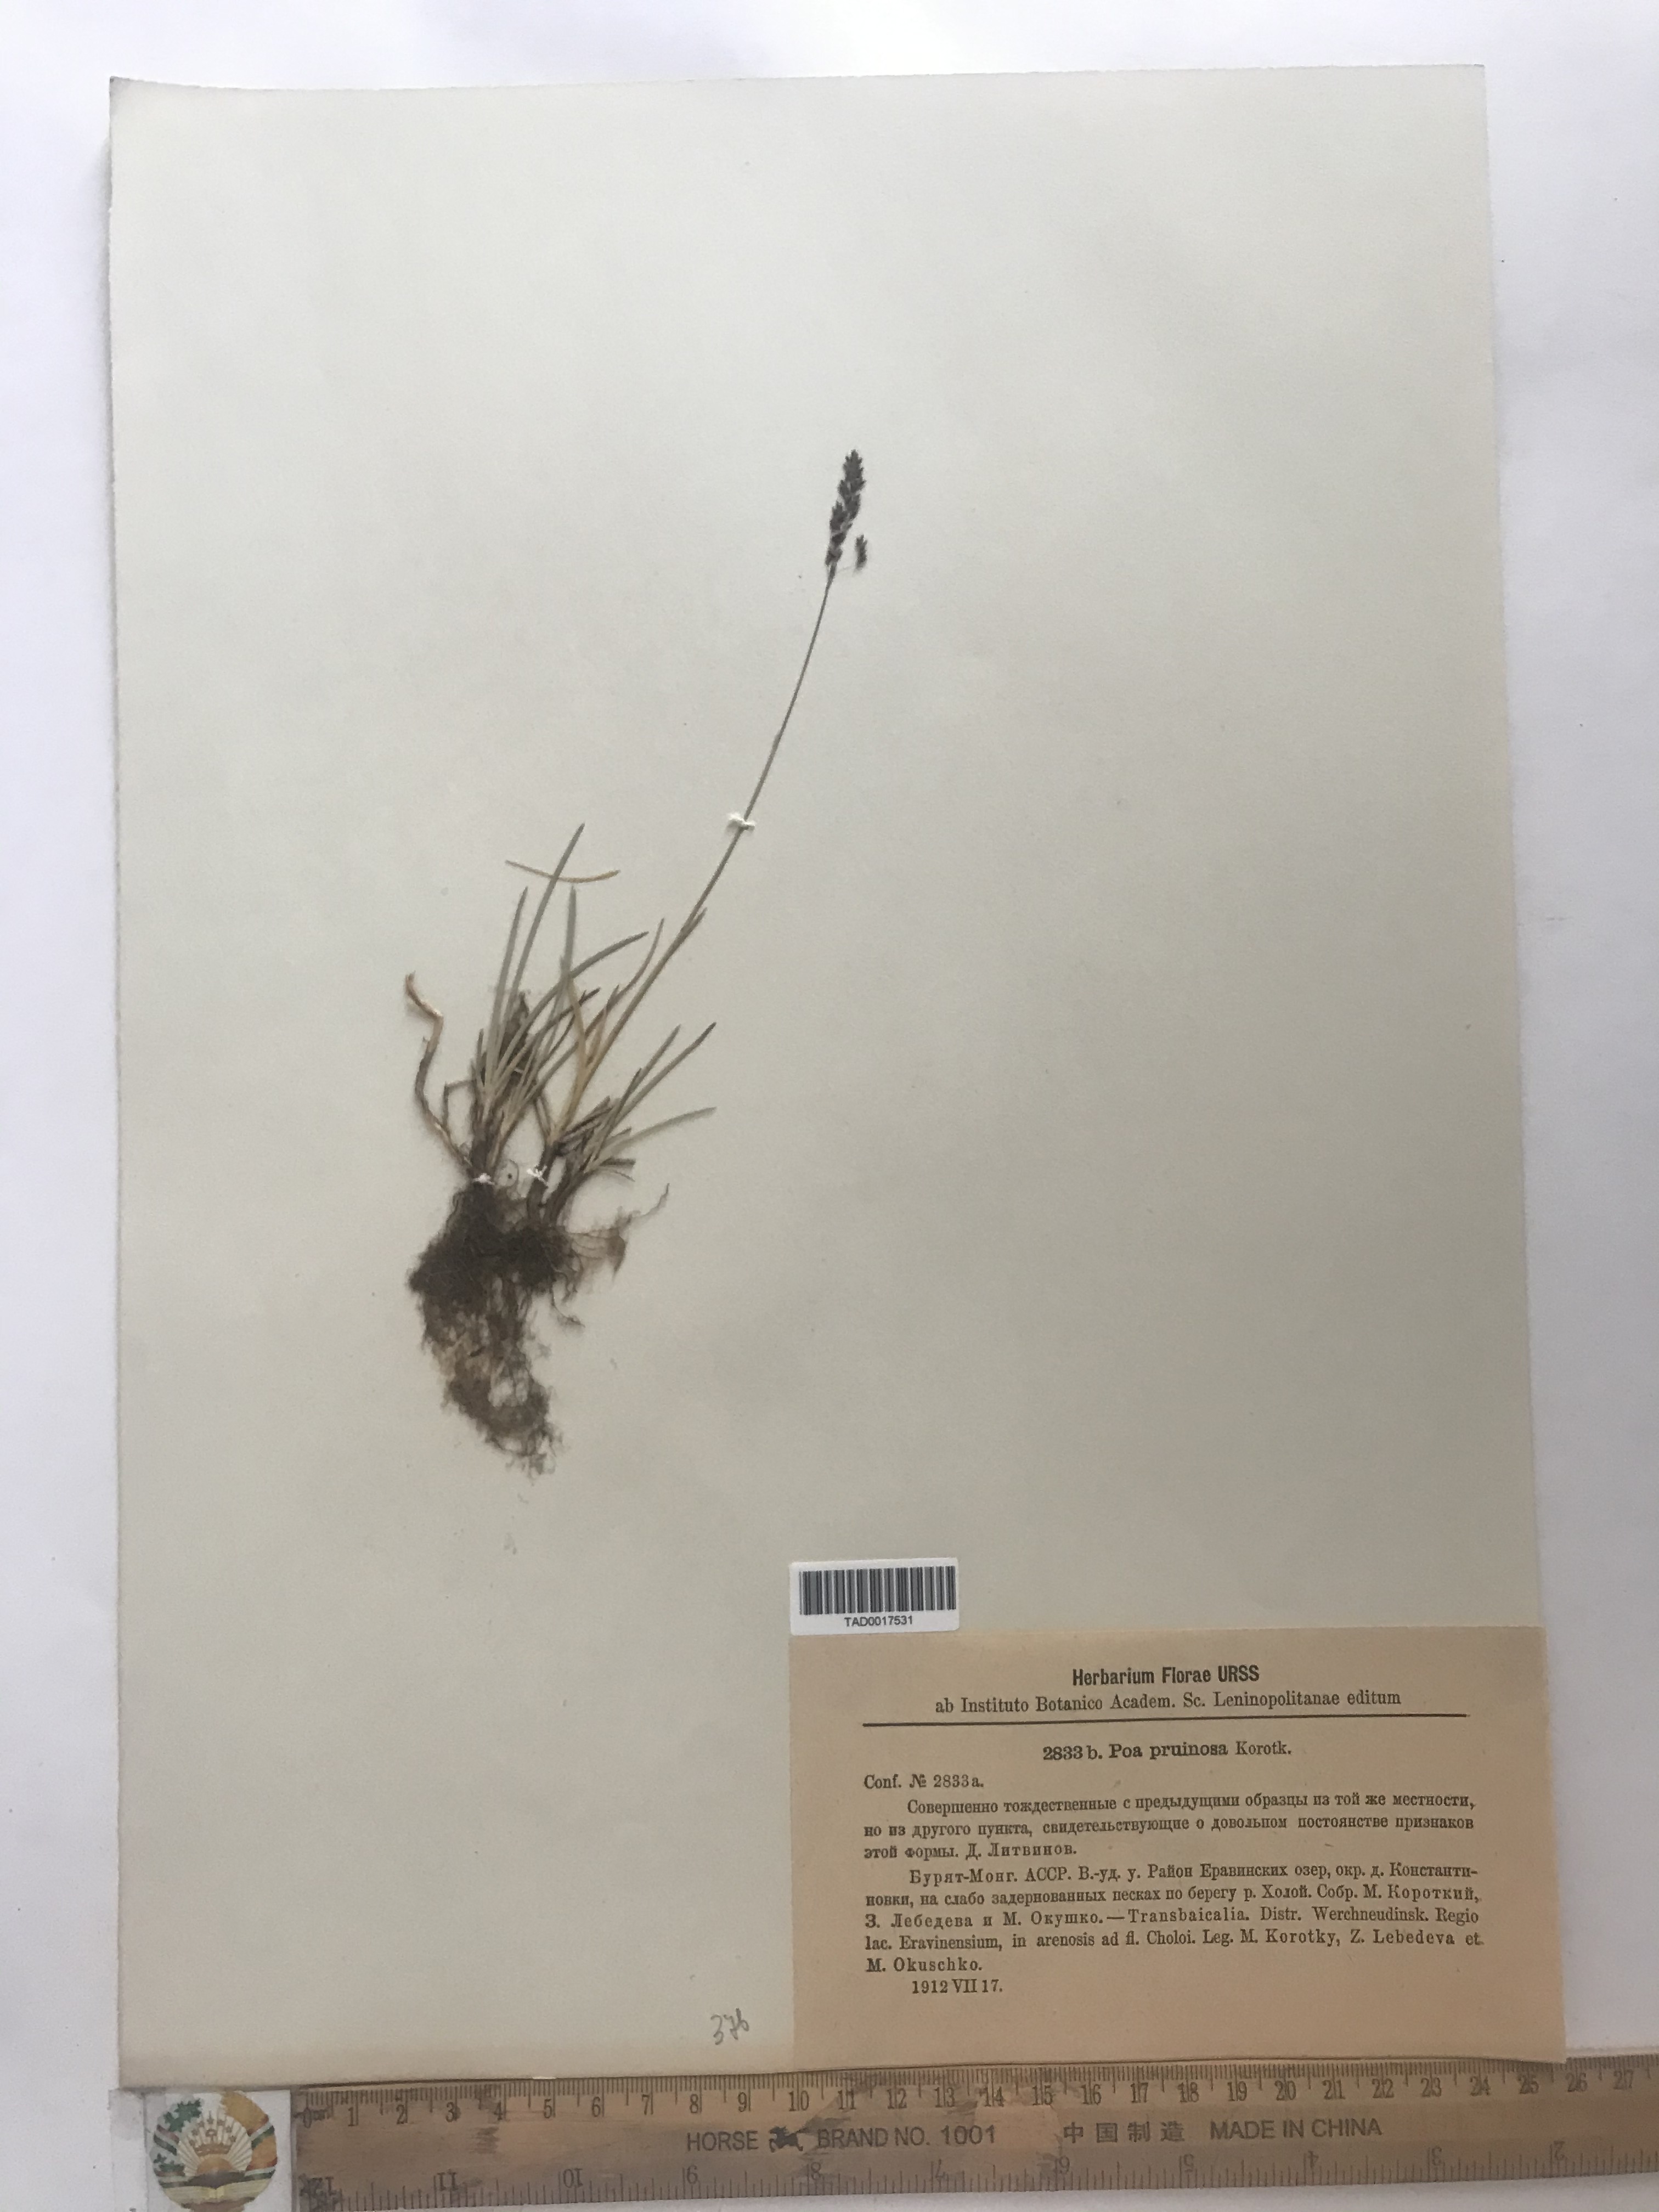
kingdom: Plantae
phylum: Tracheophyta
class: Liliopsida
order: Poales
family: Poaceae
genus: Poa
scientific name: Poa tianschanica
